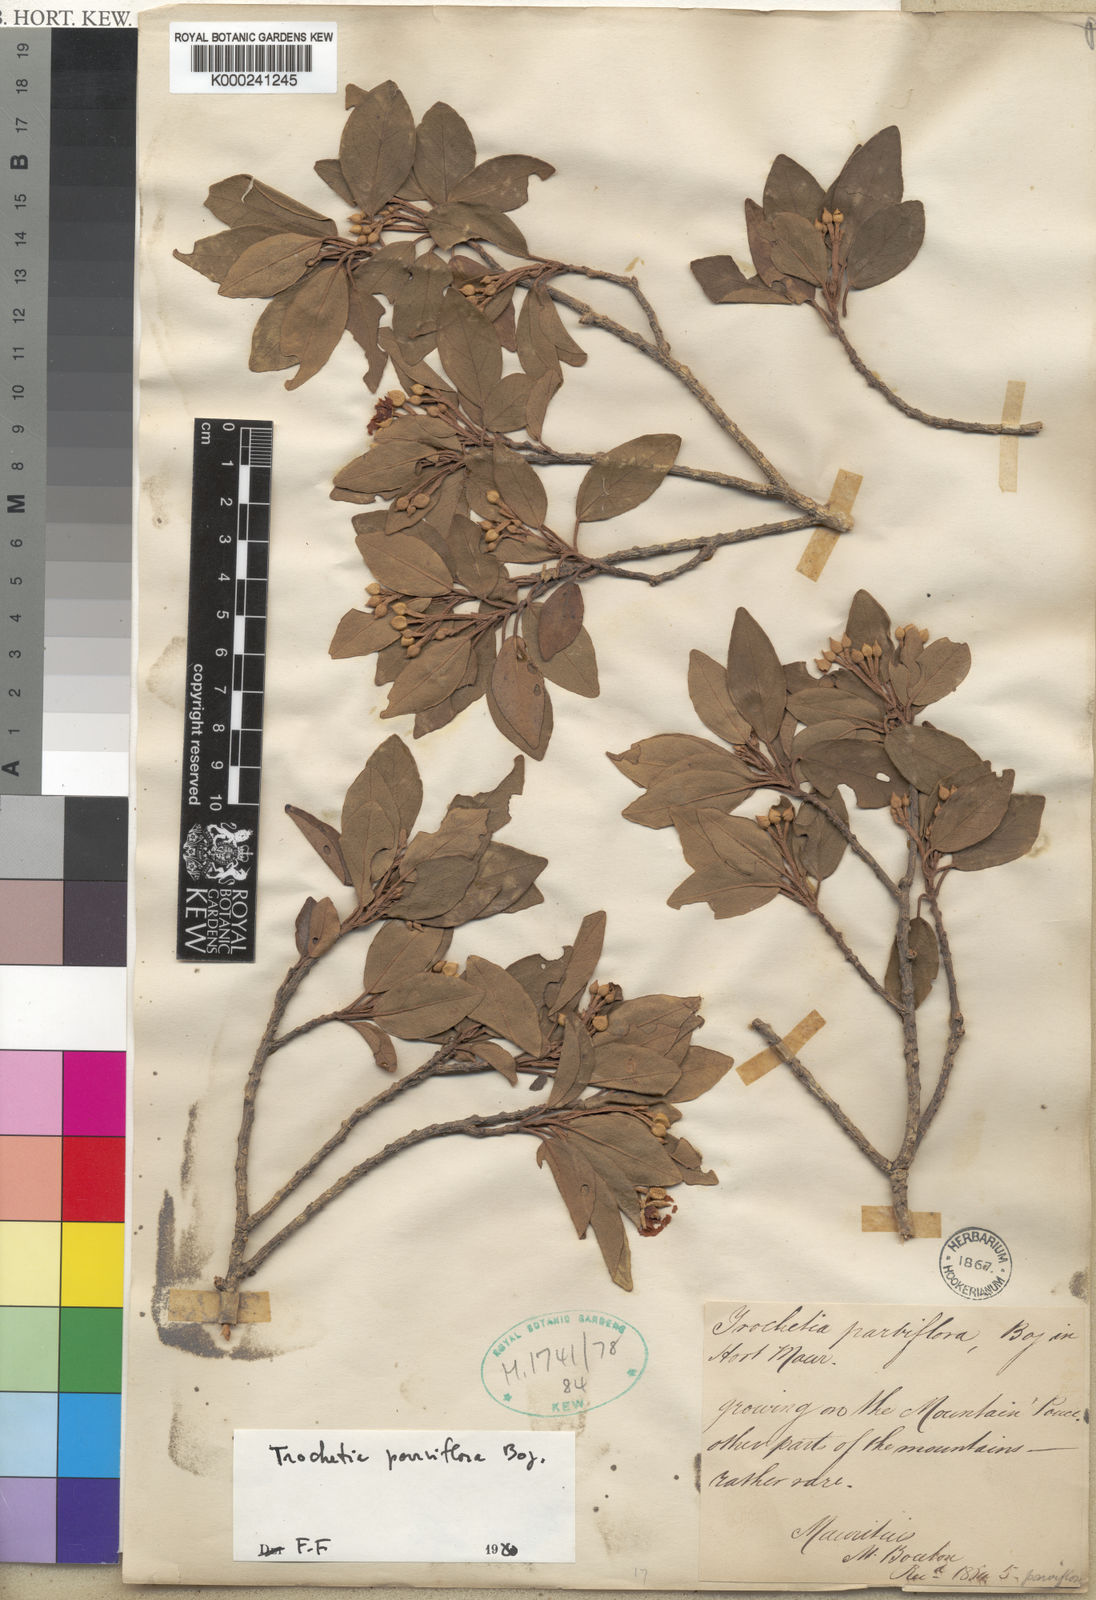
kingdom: Plantae
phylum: Tracheophyta
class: Magnoliopsida
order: Malvales
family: Malvaceae
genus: Ruizia
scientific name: Ruizia
